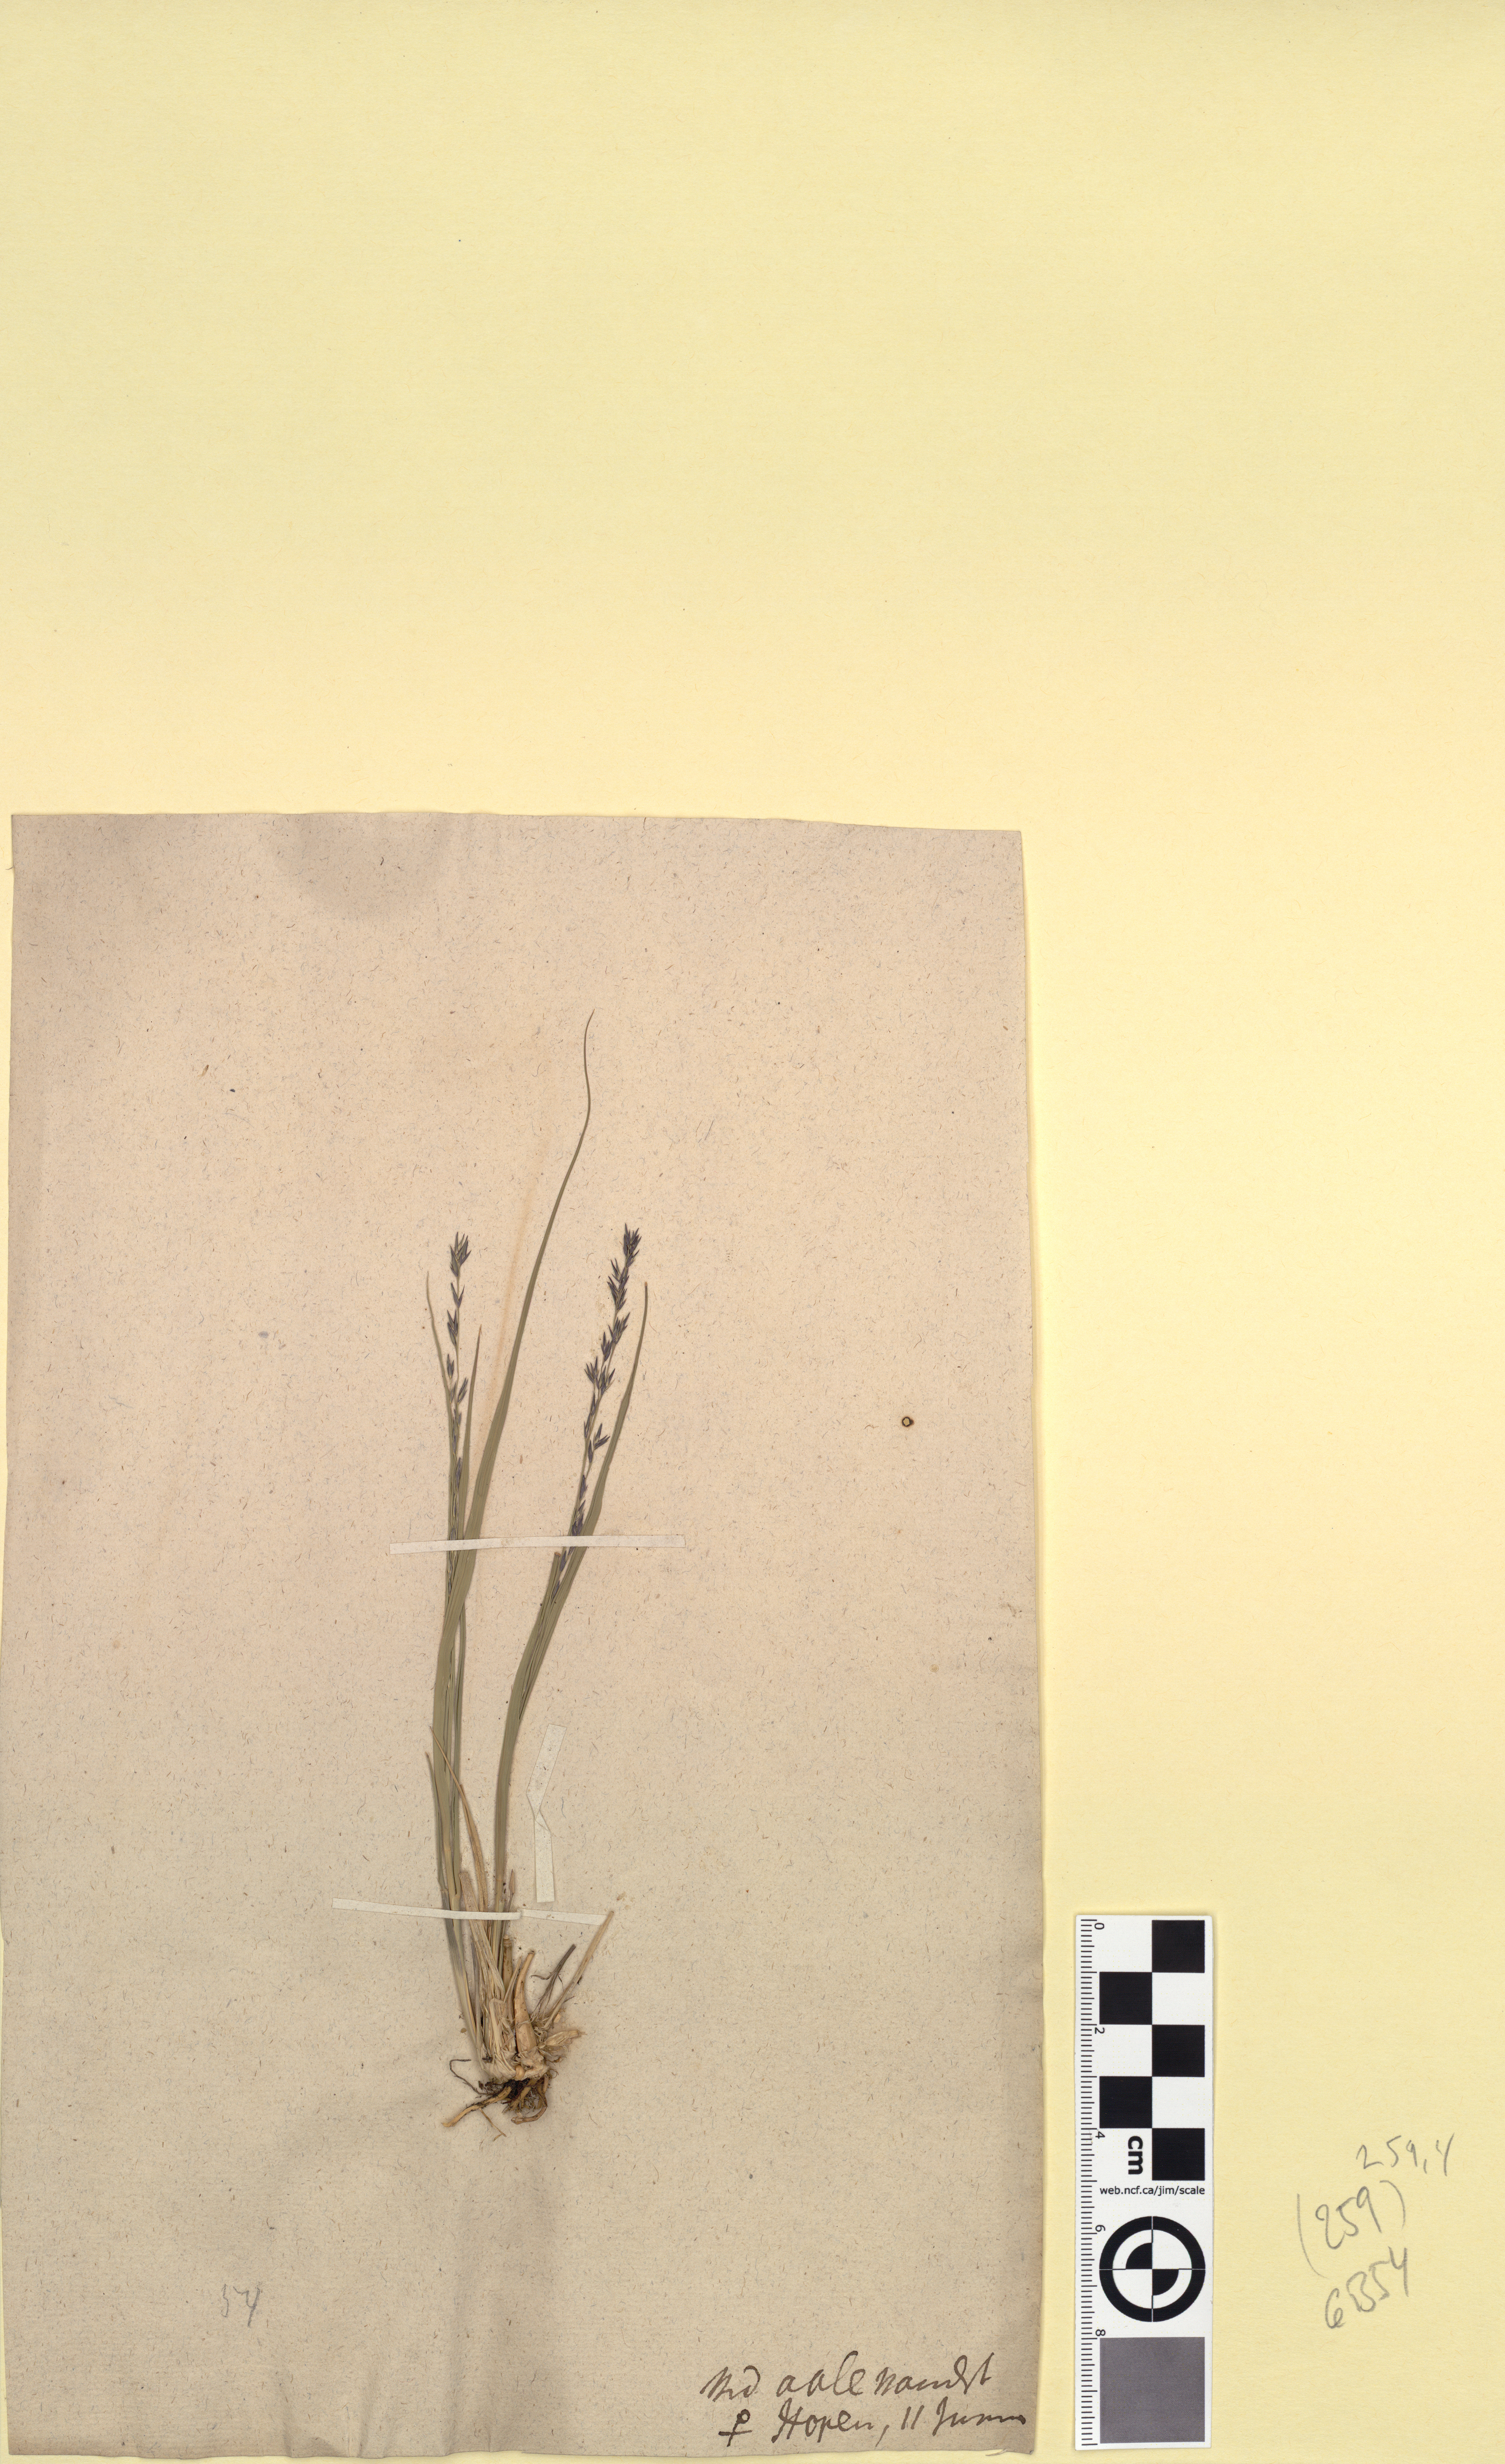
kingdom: Plantae
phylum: Tracheophyta
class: Liliopsida
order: Poales
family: Poaceae
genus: Molinia
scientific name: Molinia caerulea
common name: Purple moor-grass
